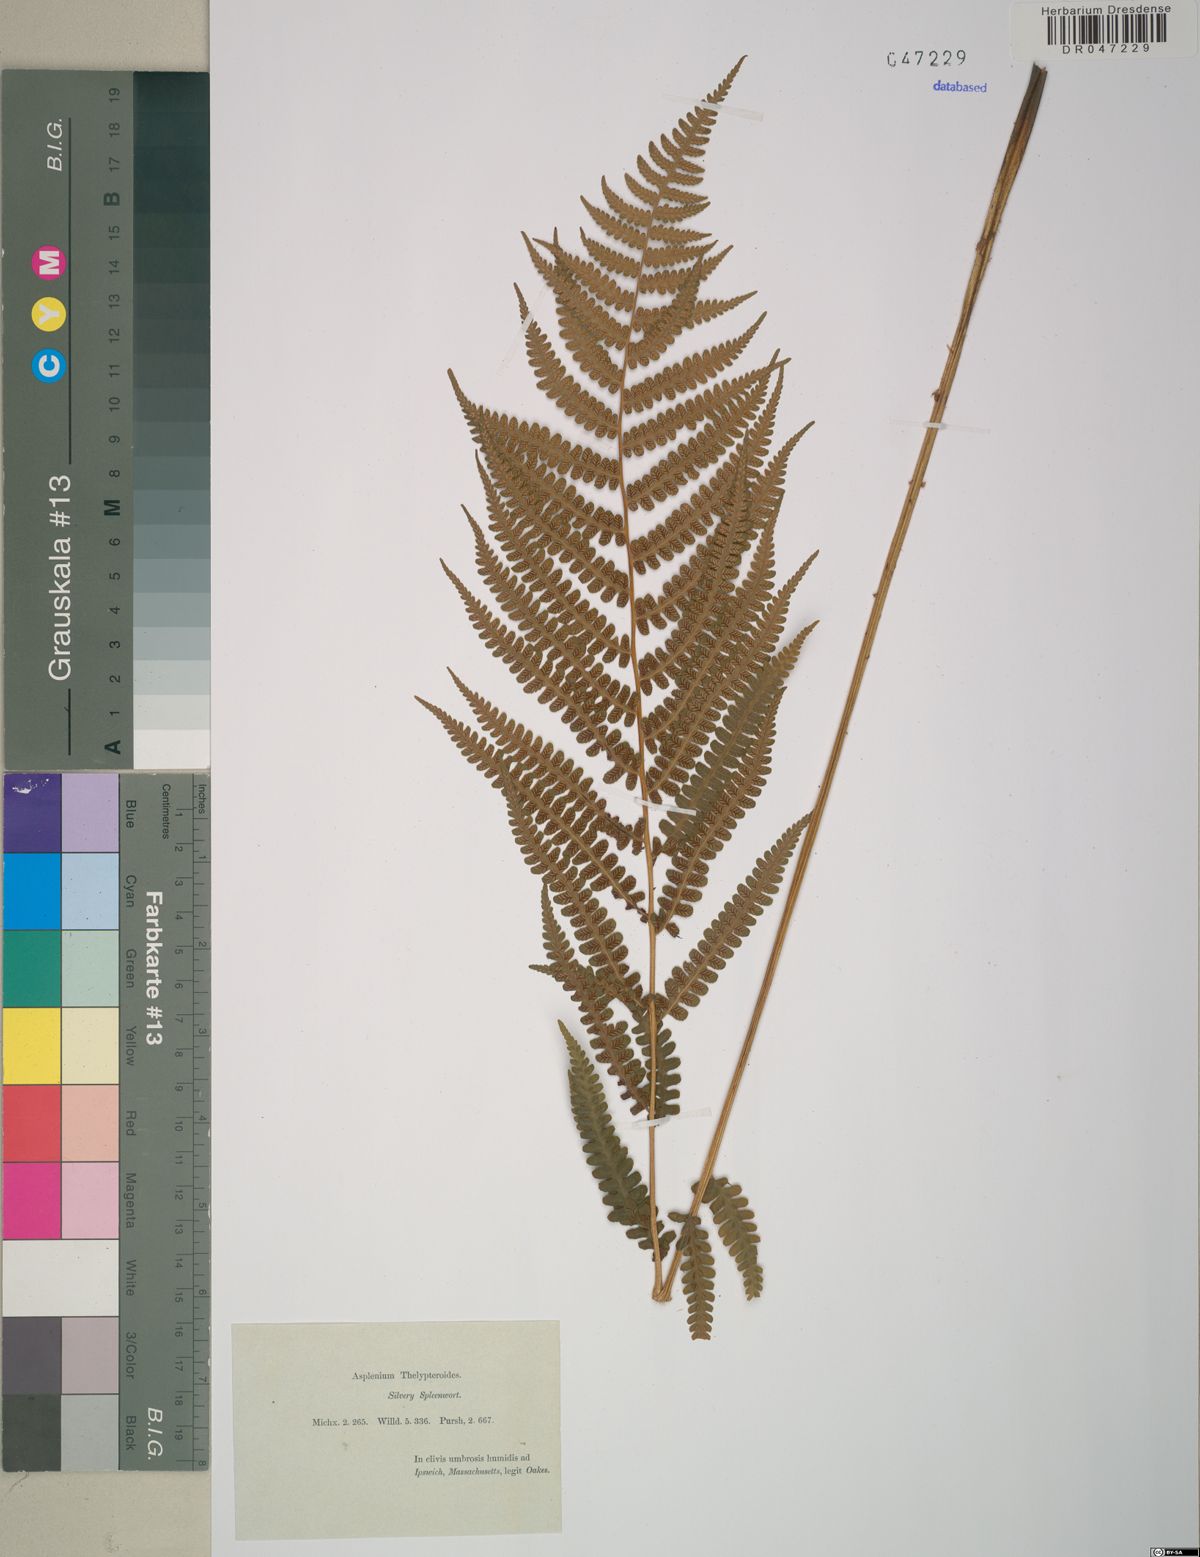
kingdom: Plantae
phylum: Tracheophyta
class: Polypodiopsida
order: Polypodiales
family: Athyriaceae
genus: Deparia
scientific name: Deparia acrostichoides
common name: Silver false spleenwort
